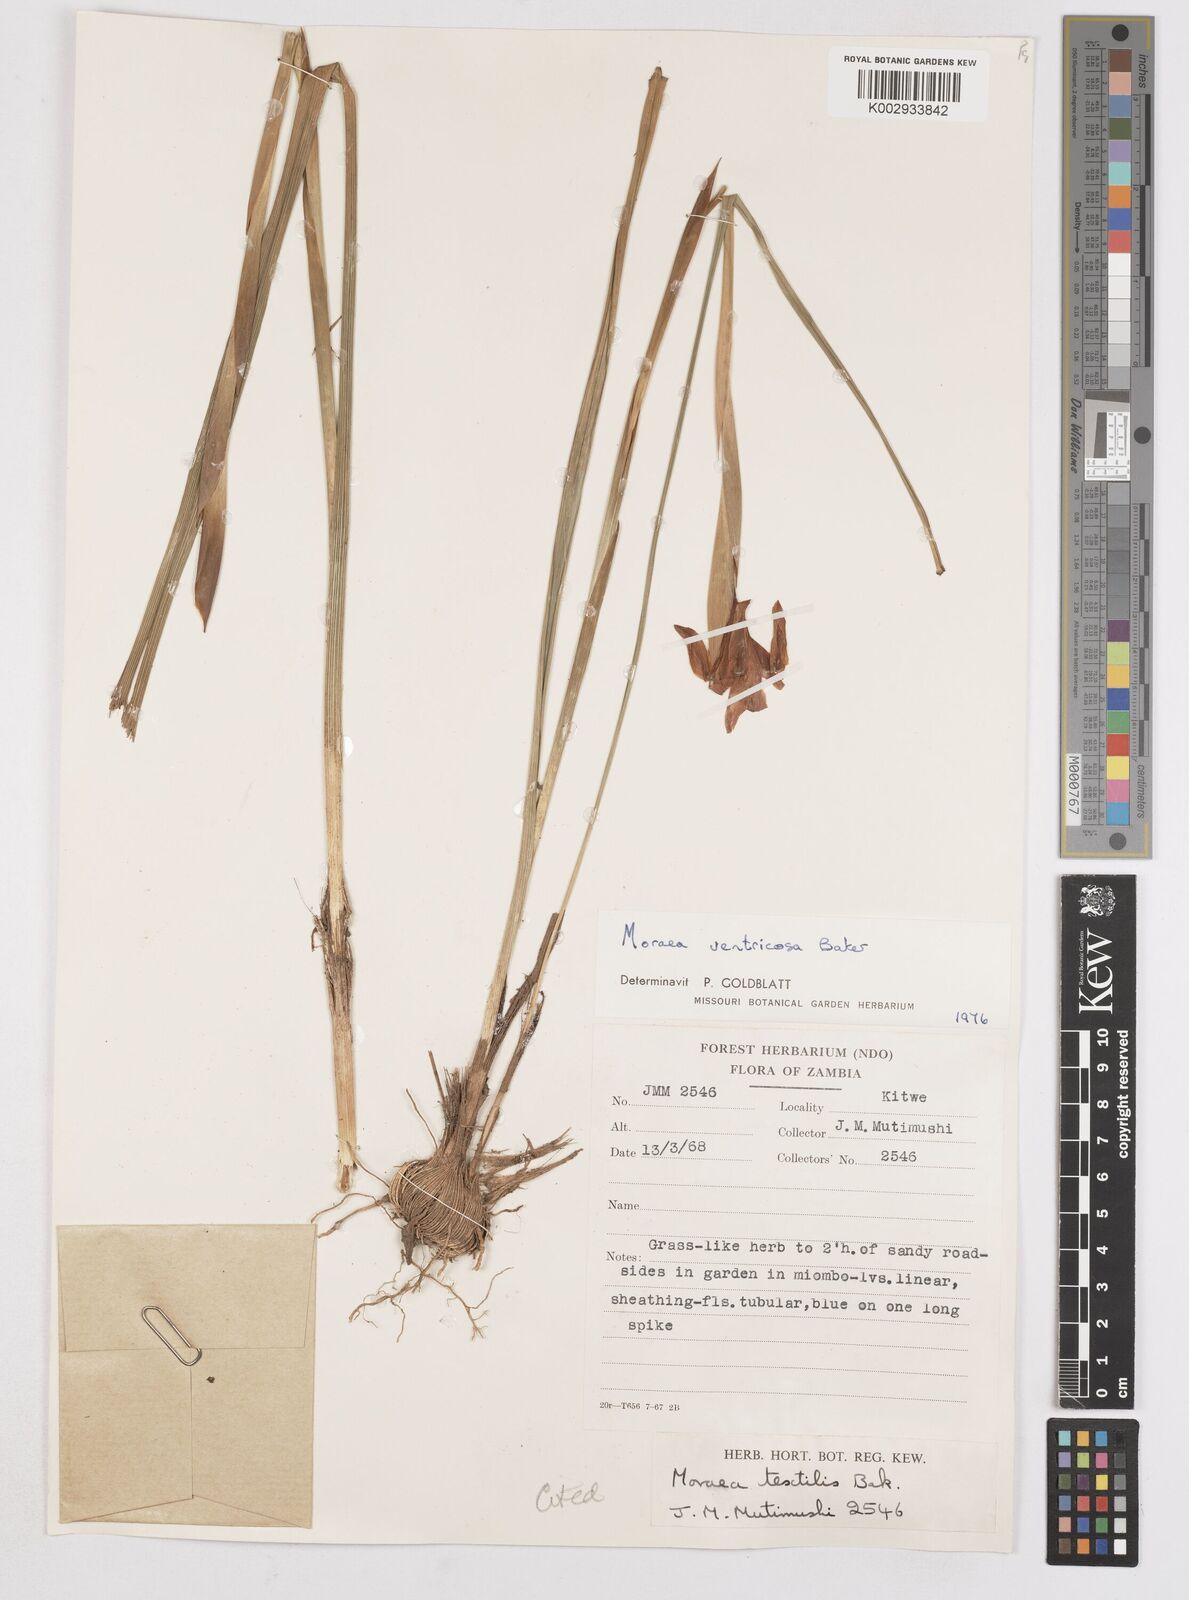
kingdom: Plantae
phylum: Tracheophyta
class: Liliopsida
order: Asparagales
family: Iridaceae
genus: Moraea
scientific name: Moraea ventricosa
